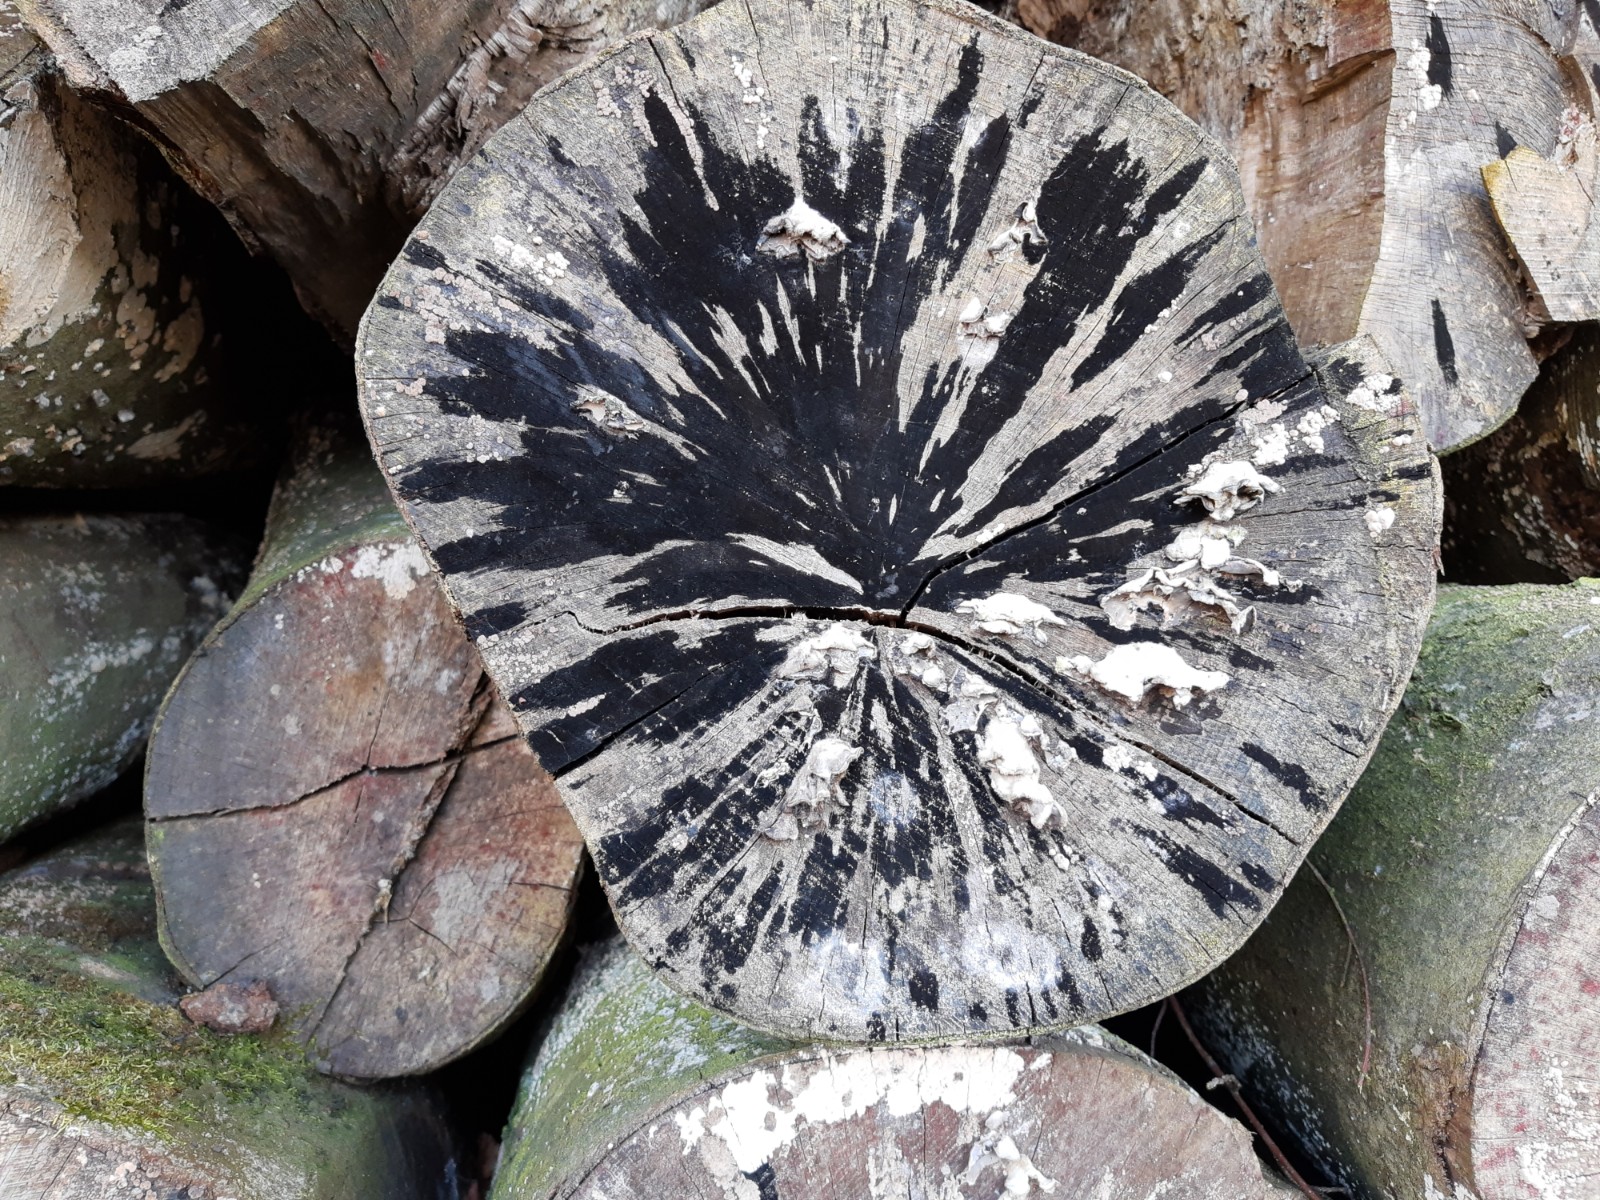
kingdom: Fungi
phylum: Ascomycota
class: Leotiomycetes
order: Helotiales
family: Helotiaceae
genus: Bispora
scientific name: Bispora pallescens
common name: måtte-snitskive
